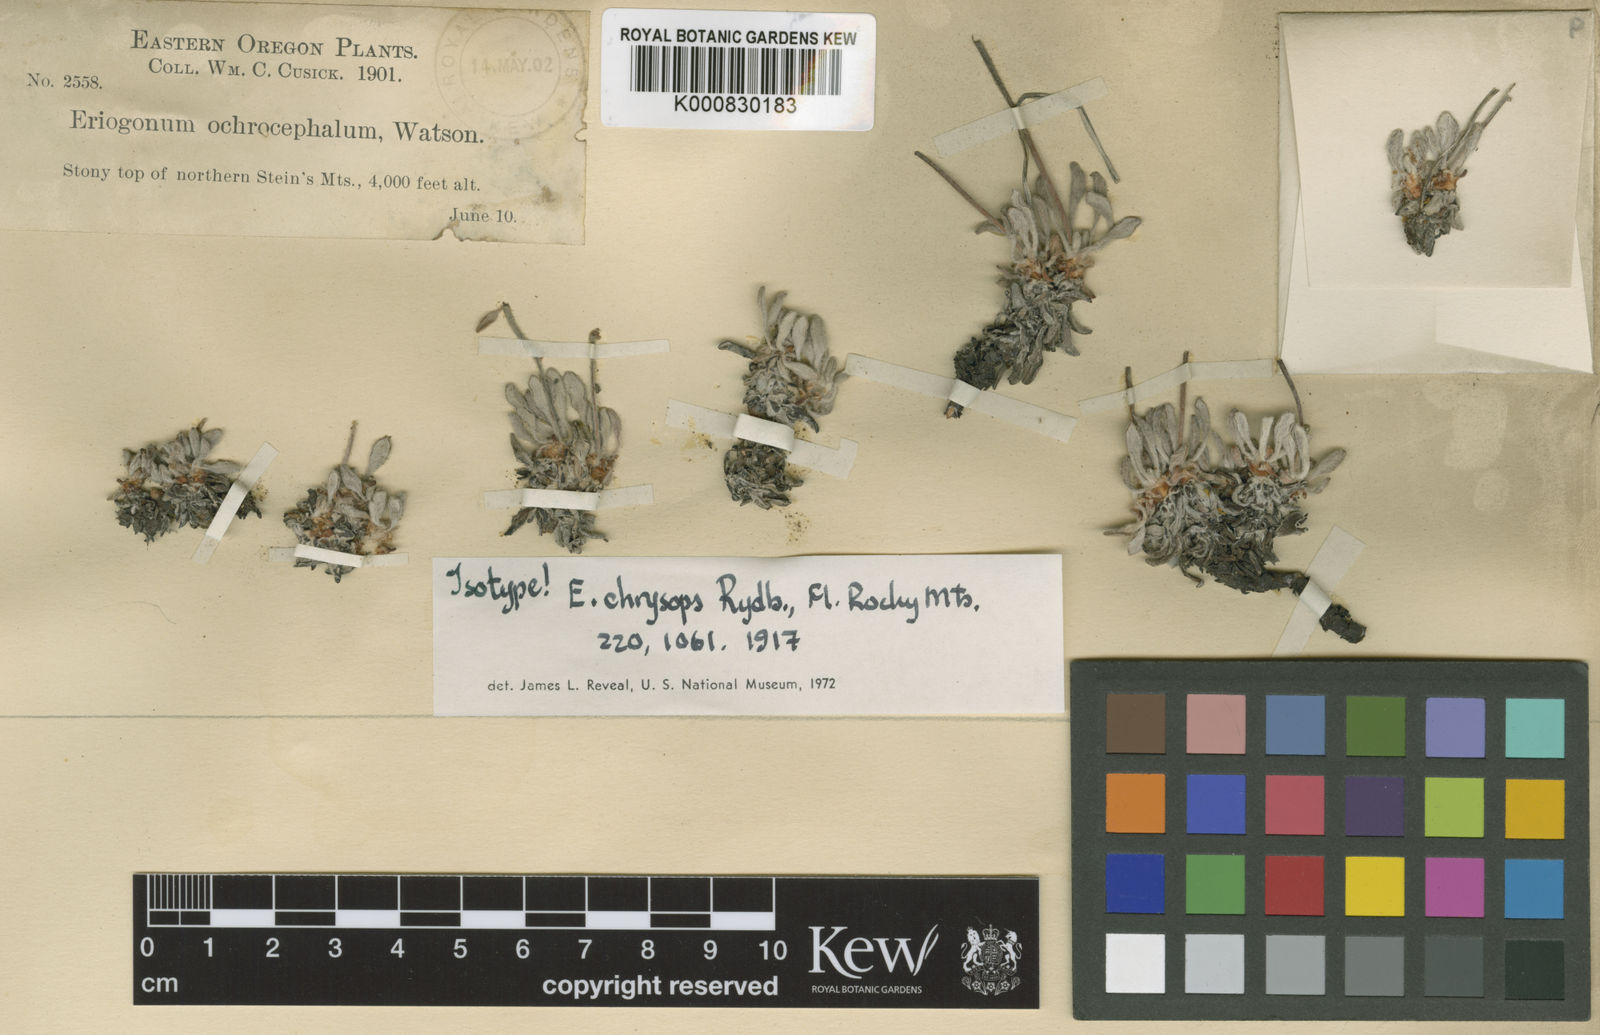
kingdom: Plantae
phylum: Tracheophyta
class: Magnoliopsida
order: Caryophyllales
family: Polygonaceae
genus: Eriogonum
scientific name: Eriogonum chrysops
